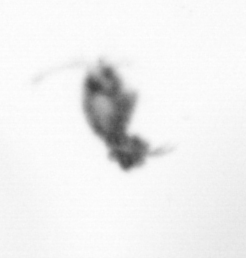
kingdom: Animalia
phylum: Arthropoda
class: Copepoda
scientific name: Copepoda
